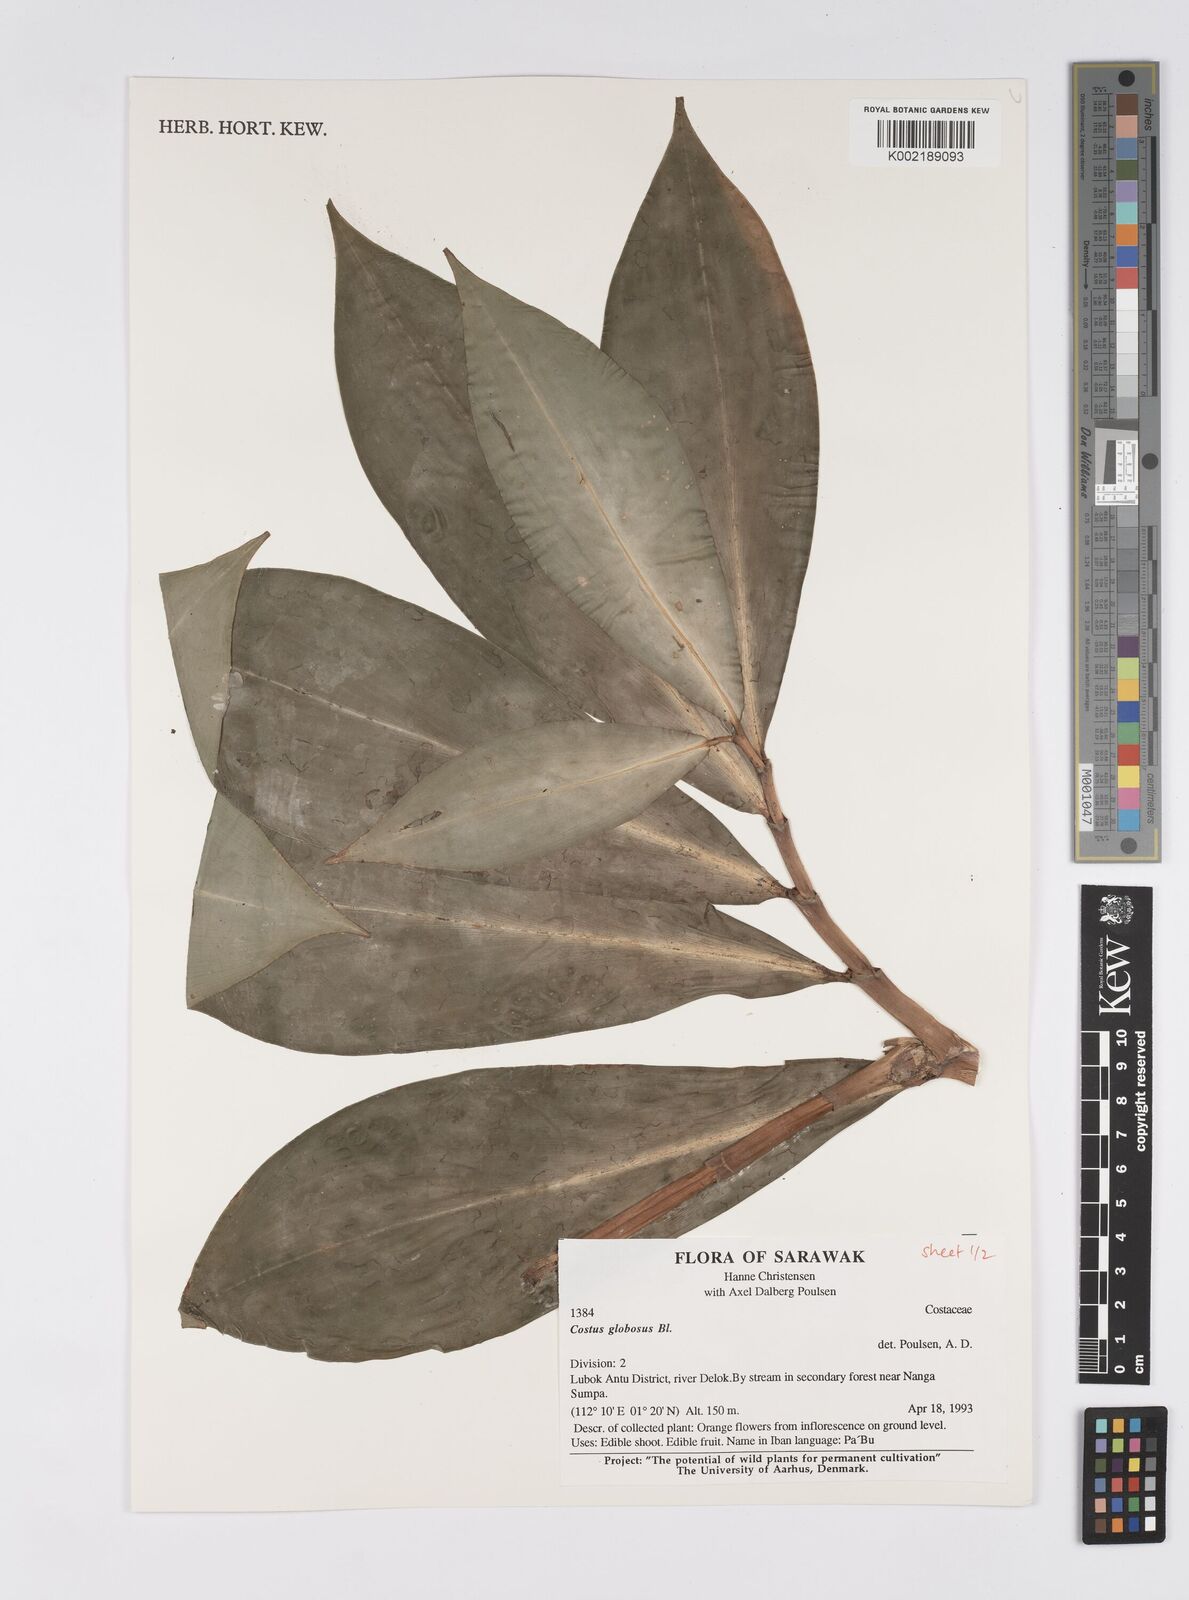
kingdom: Plantae
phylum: Tracheophyta
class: Liliopsida
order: Zingiberales
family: Costaceae
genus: Hellenia
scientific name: Hellenia globosa
